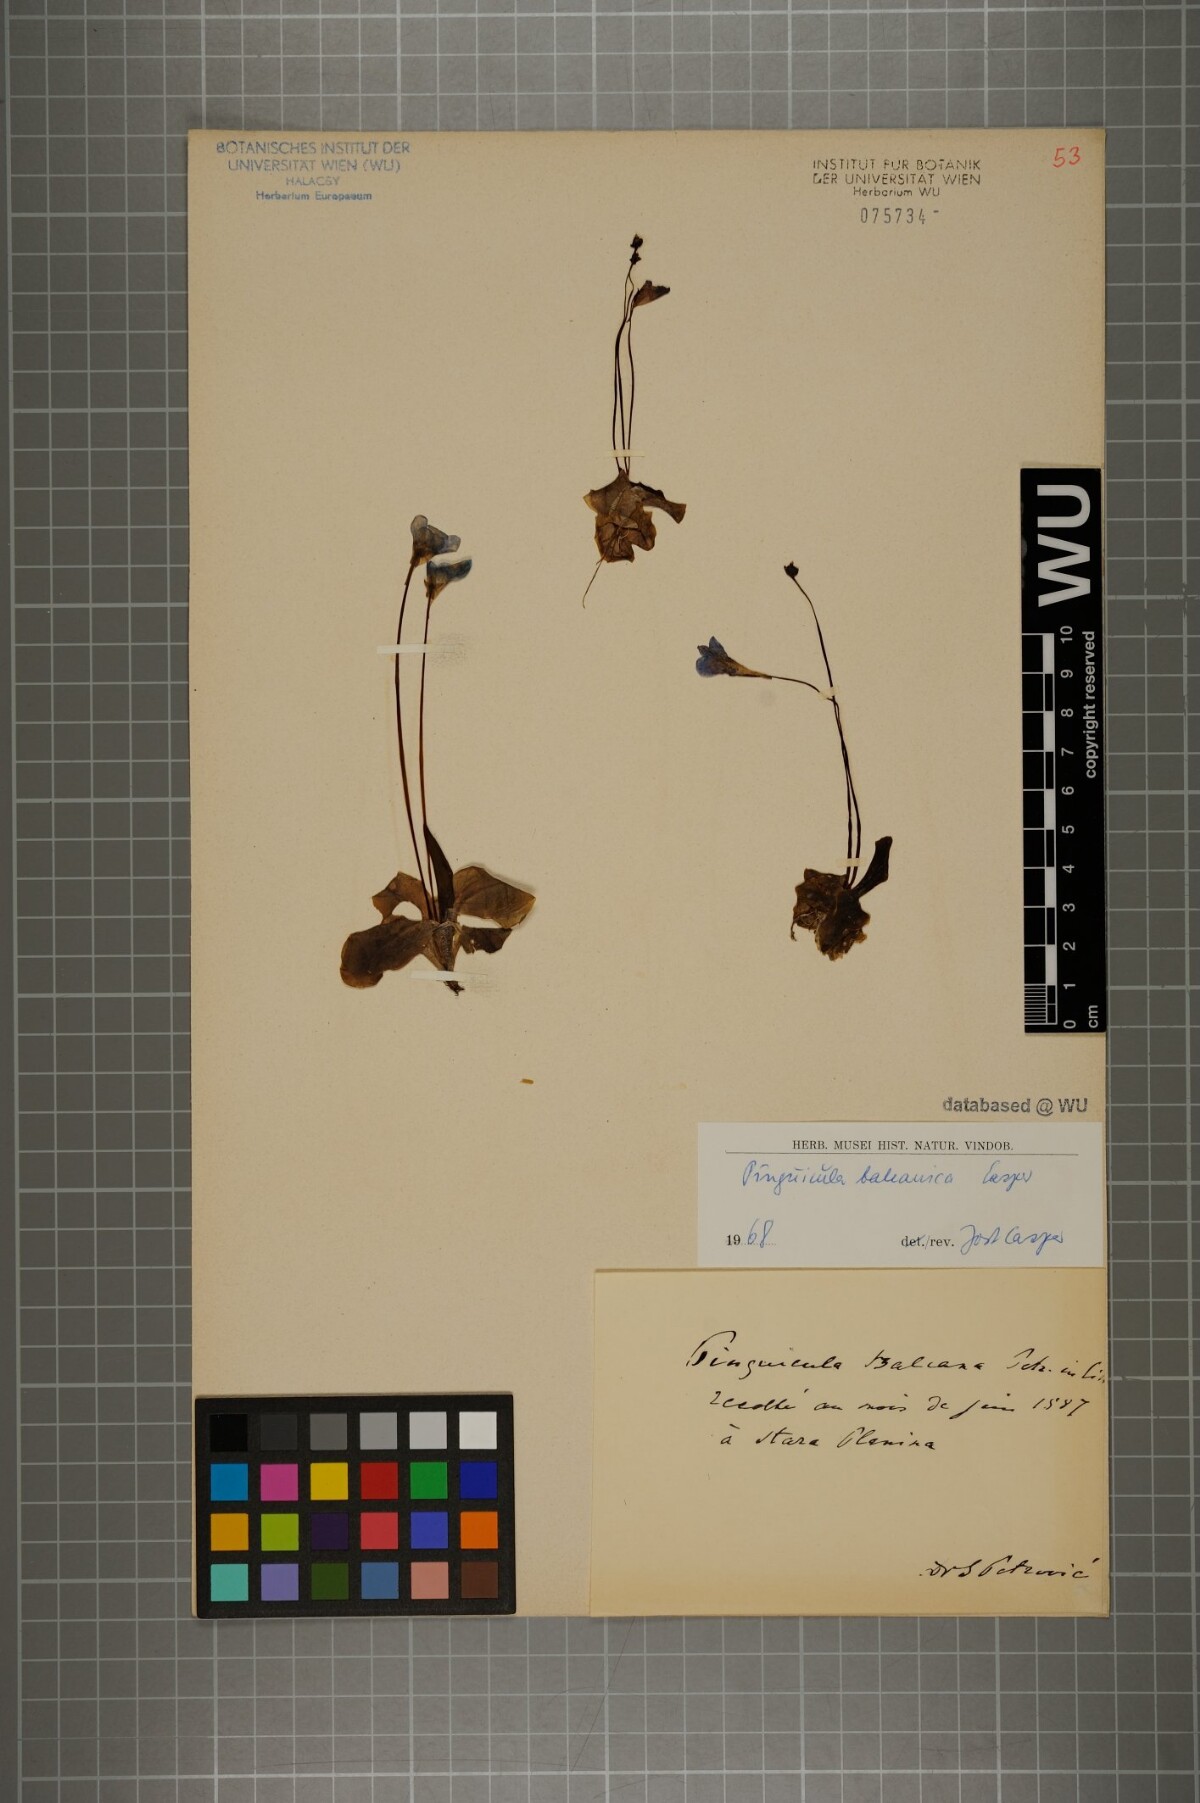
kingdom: Plantae
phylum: Tracheophyta
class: Magnoliopsida
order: Lamiales
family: Lentibulariaceae
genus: Pinguicula
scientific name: Pinguicula balcanica
